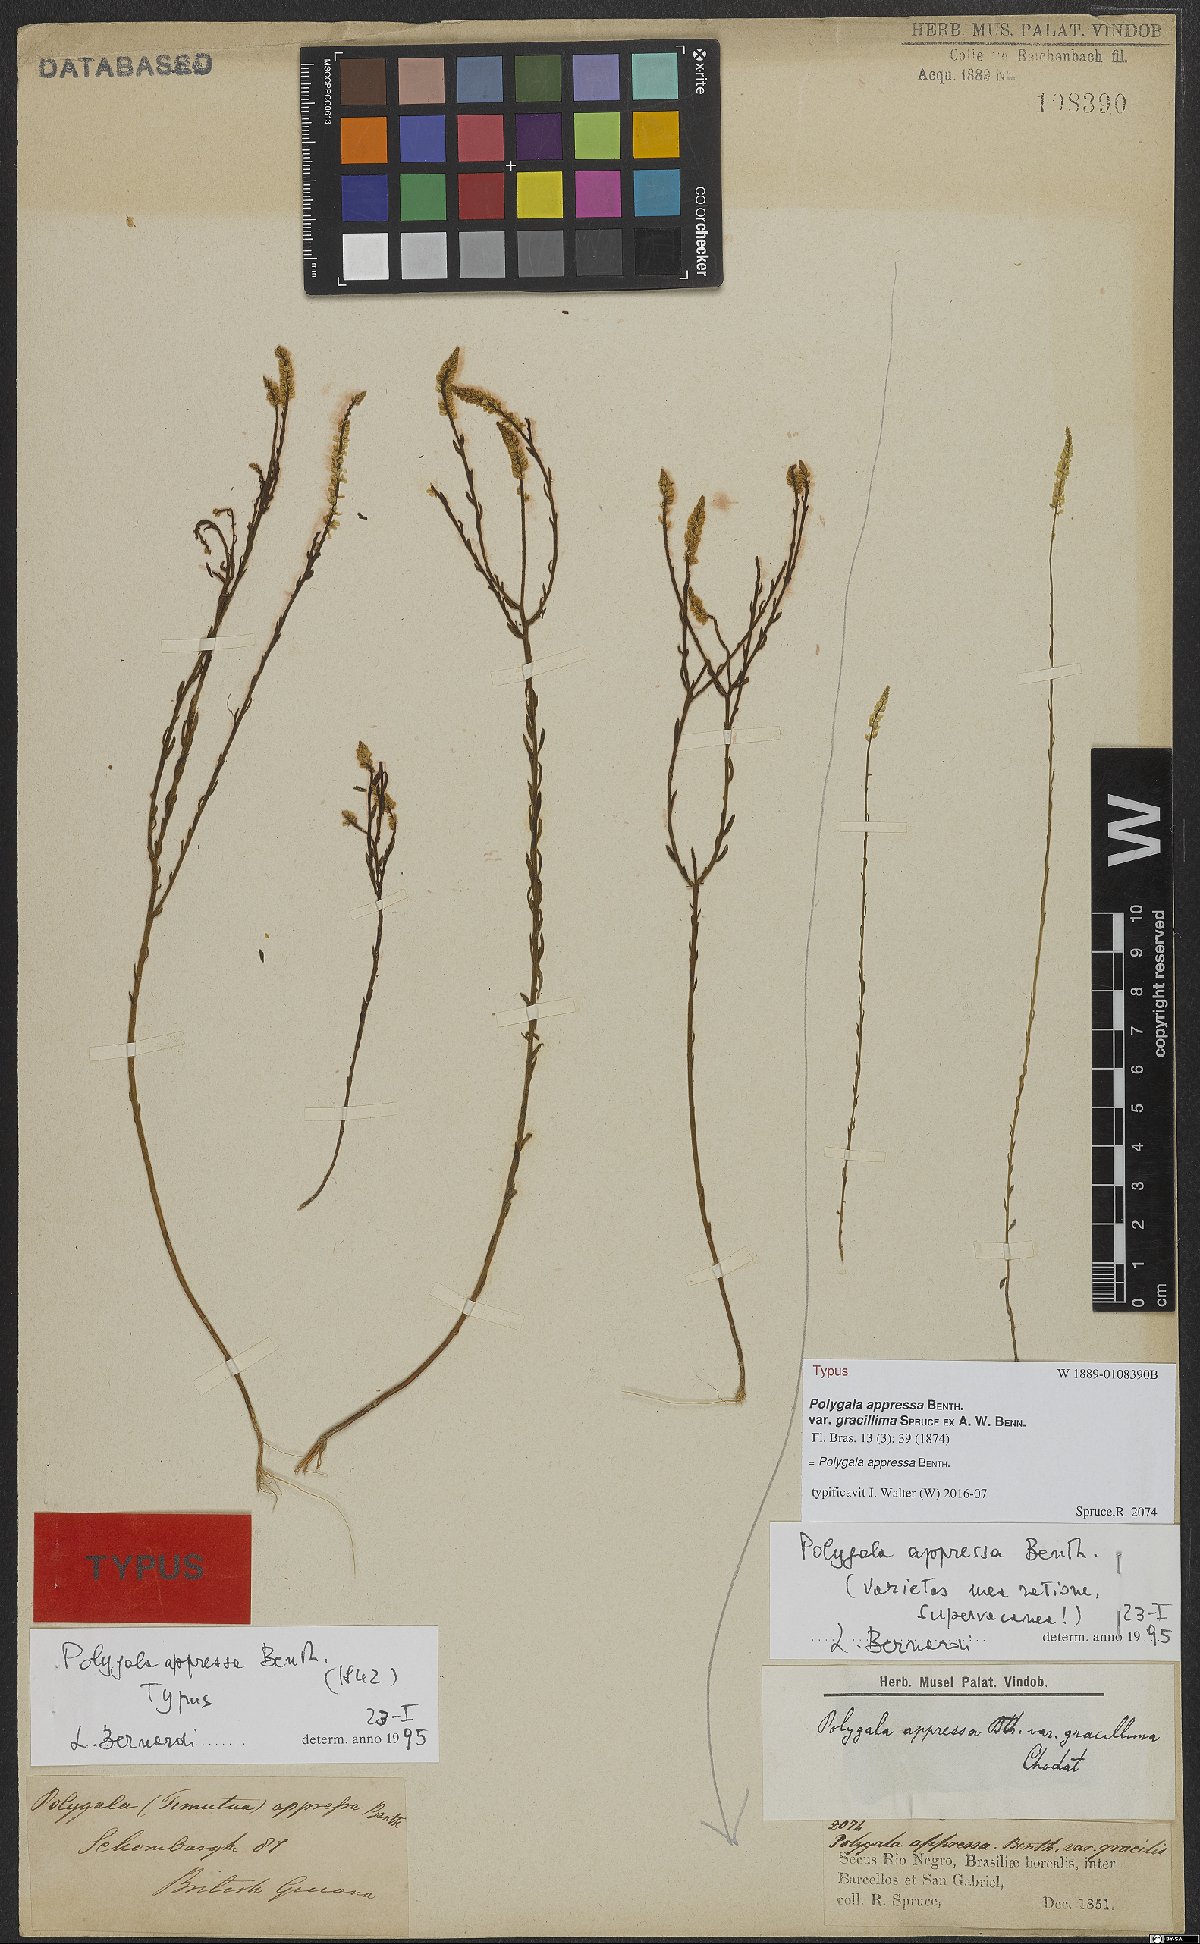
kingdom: Plantae
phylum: Tracheophyta
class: Magnoliopsida
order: Fabales
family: Polygalaceae
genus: Polygala
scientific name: Polygala appressa
